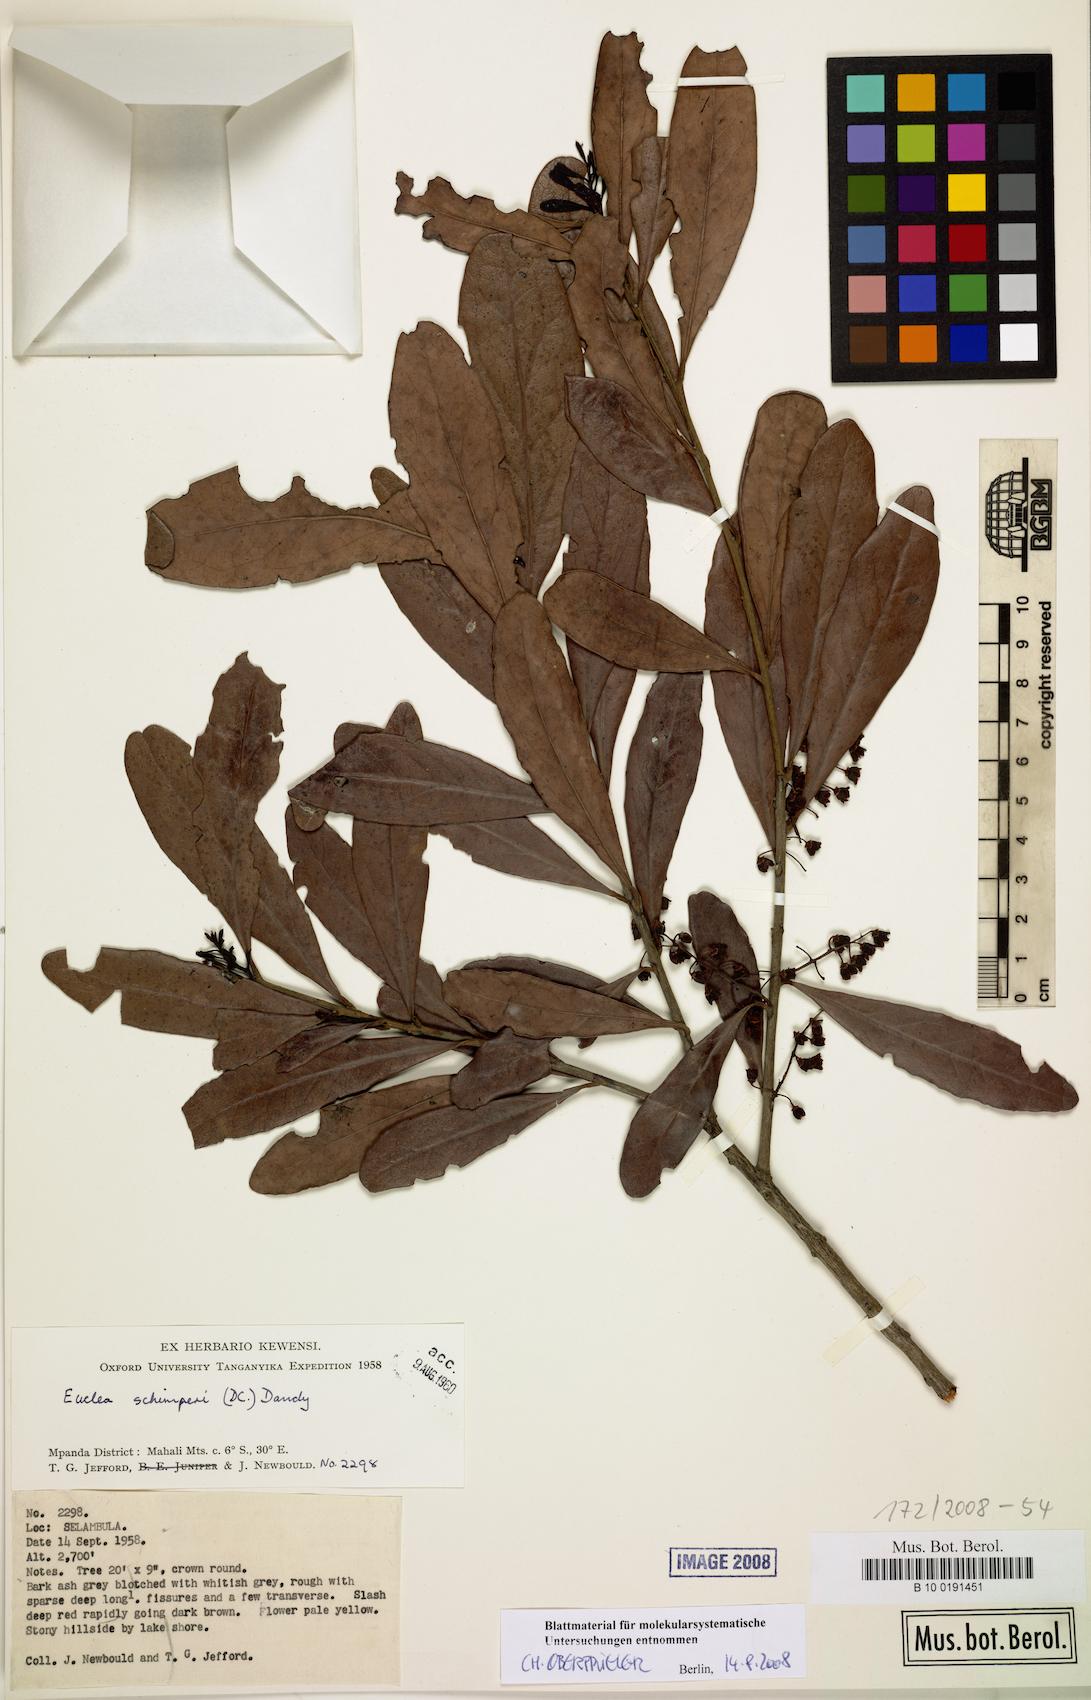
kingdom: Plantae
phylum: Tracheophyta
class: Magnoliopsida
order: Ericales
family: Ebenaceae
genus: Euclea
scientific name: Euclea racemosa
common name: Dune guarri
